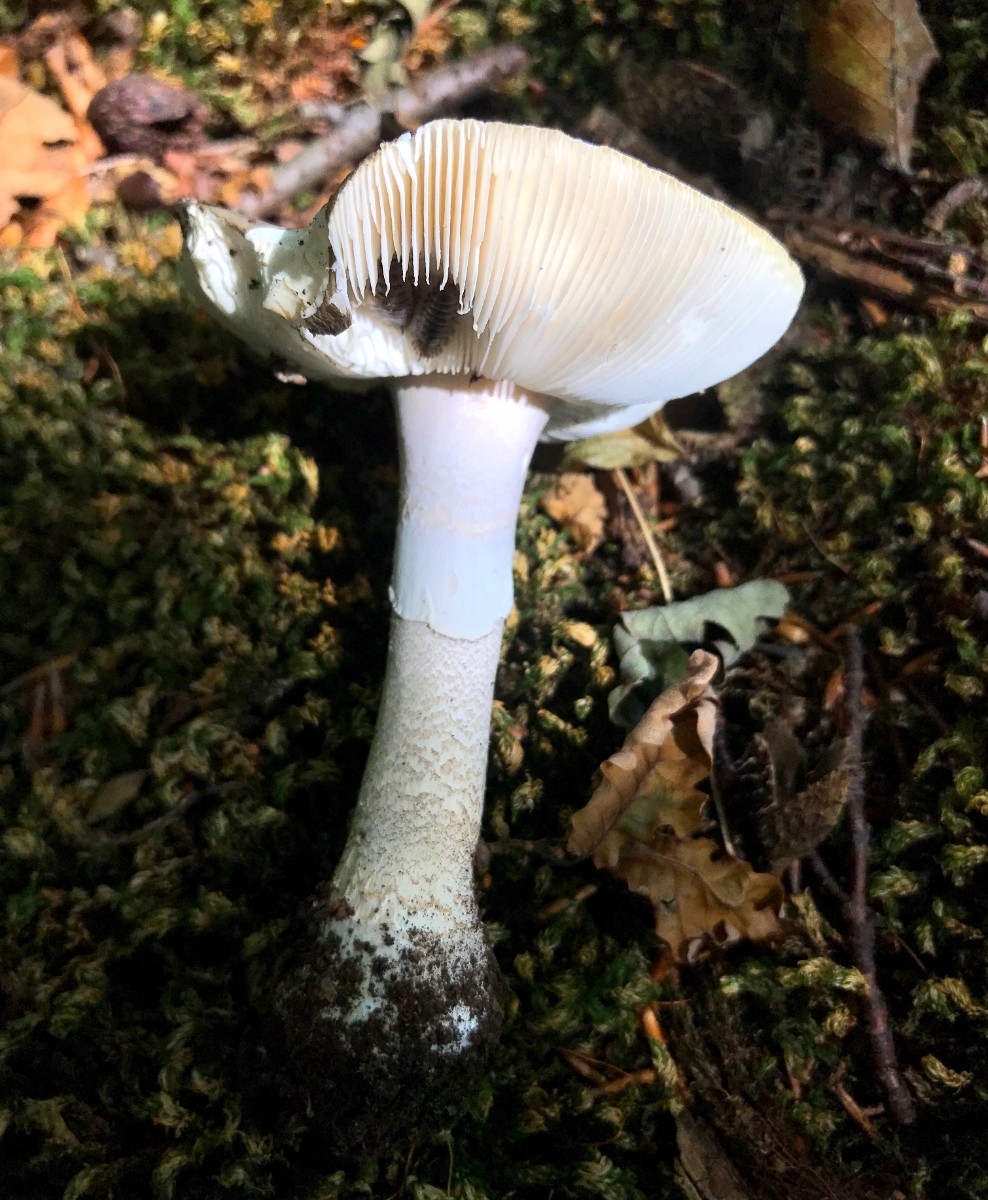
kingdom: Fungi
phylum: Basidiomycota
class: Agaricomycetes
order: Agaricales
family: Amanitaceae
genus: Amanita
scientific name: Amanita
